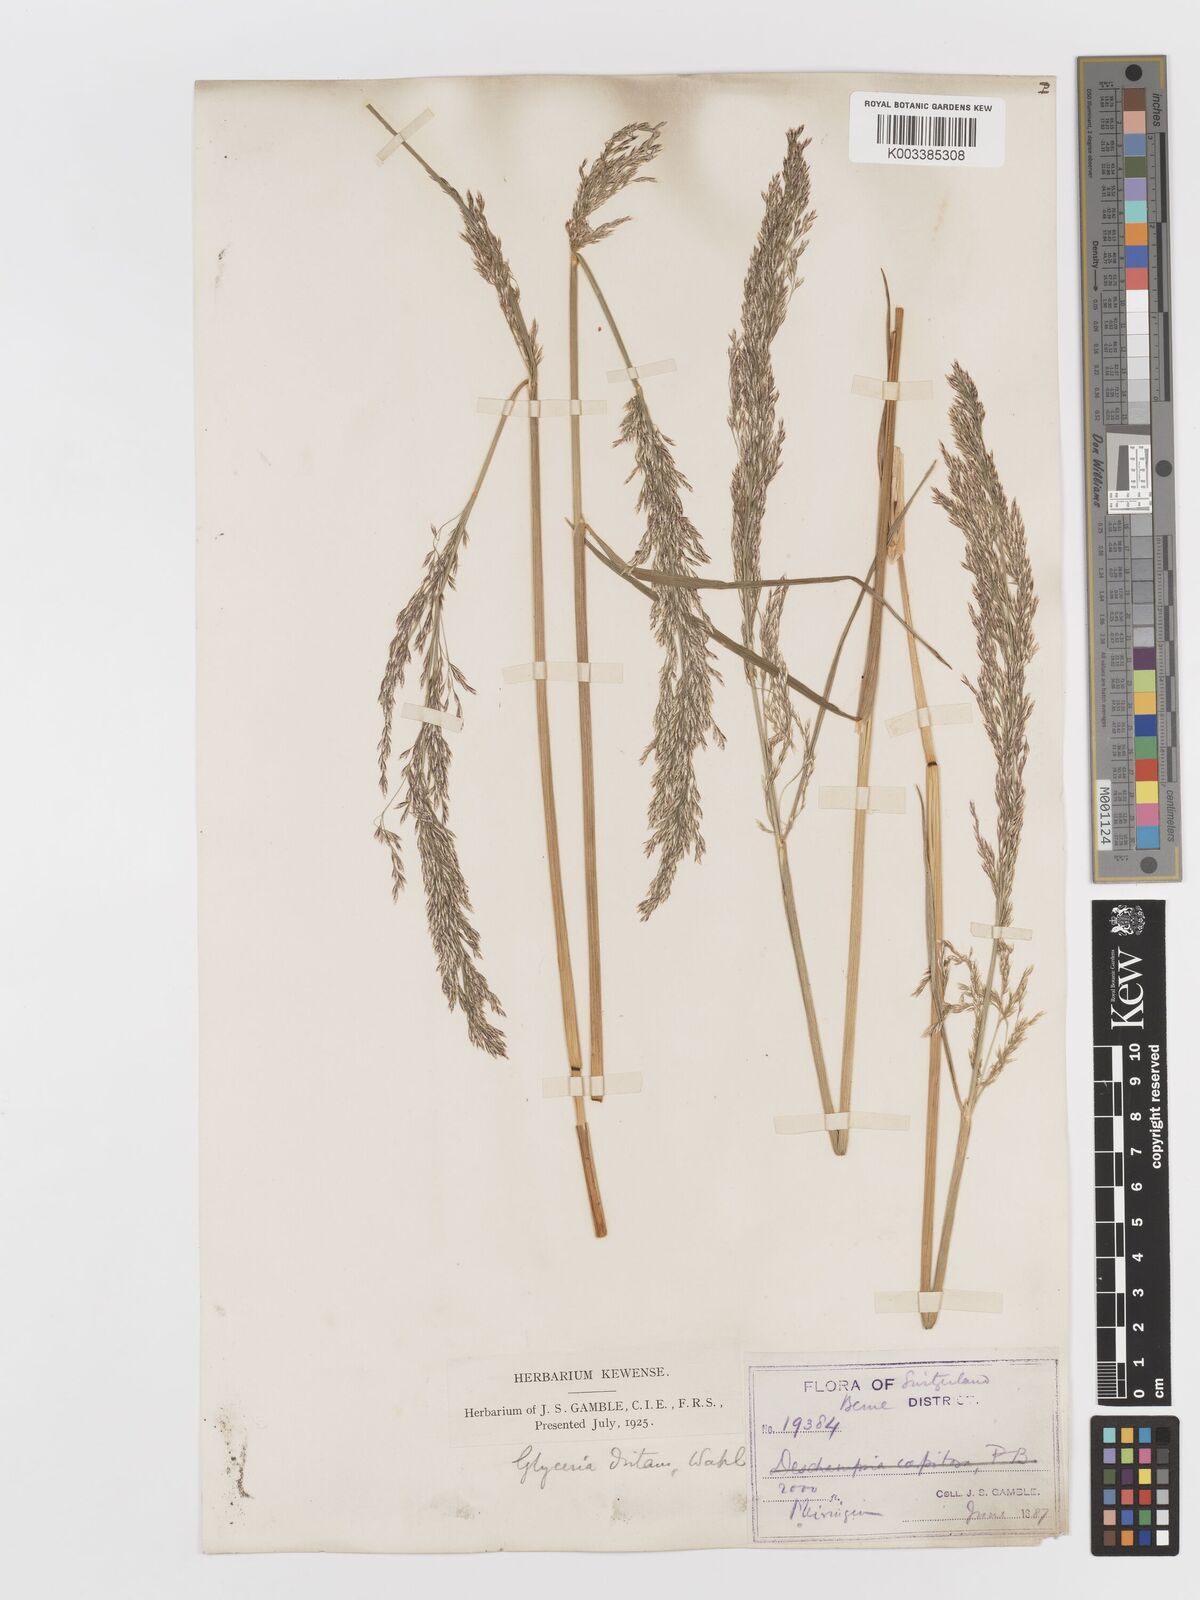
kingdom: Plantae
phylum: Tracheophyta
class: Liliopsida
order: Poales
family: Poaceae
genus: Deschampsia
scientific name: Deschampsia cespitosa
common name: Tufted hair-grass
